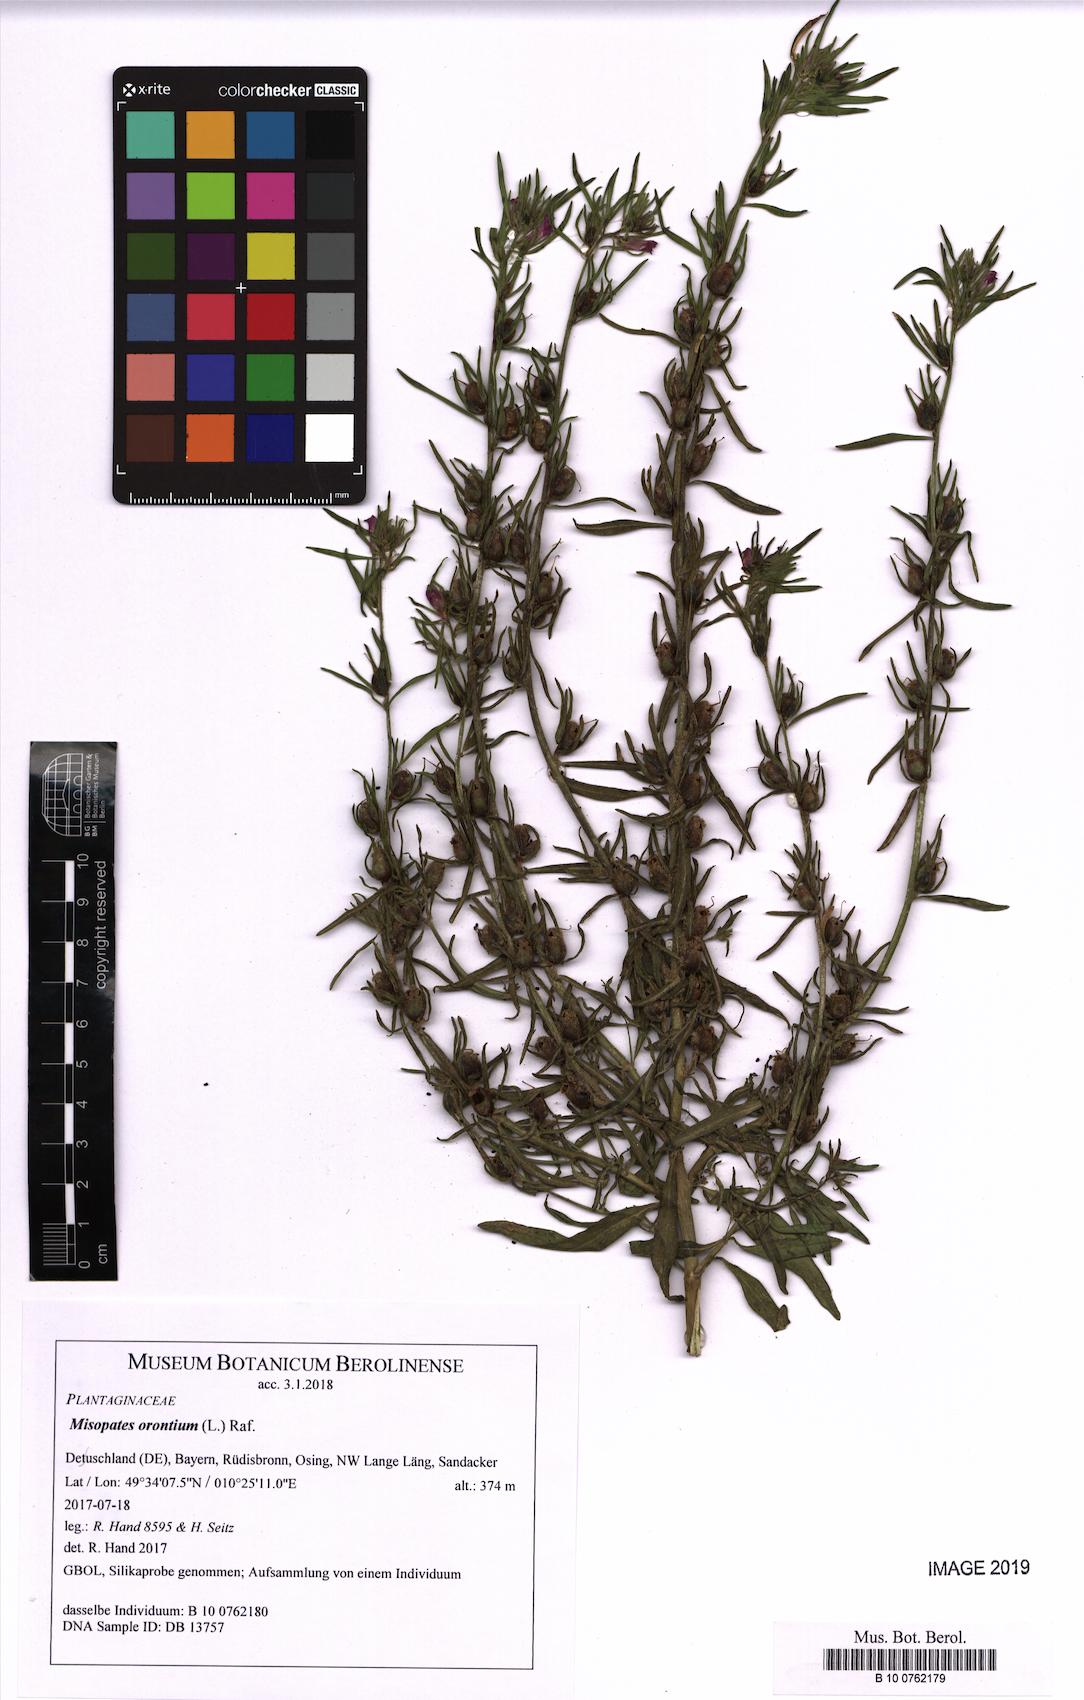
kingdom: Plantae
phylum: Tracheophyta
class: Magnoliopsida
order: Lamiales
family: Plantaginaceae
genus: Misopates
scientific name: Misopates orontium
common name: Weasel's-snout
